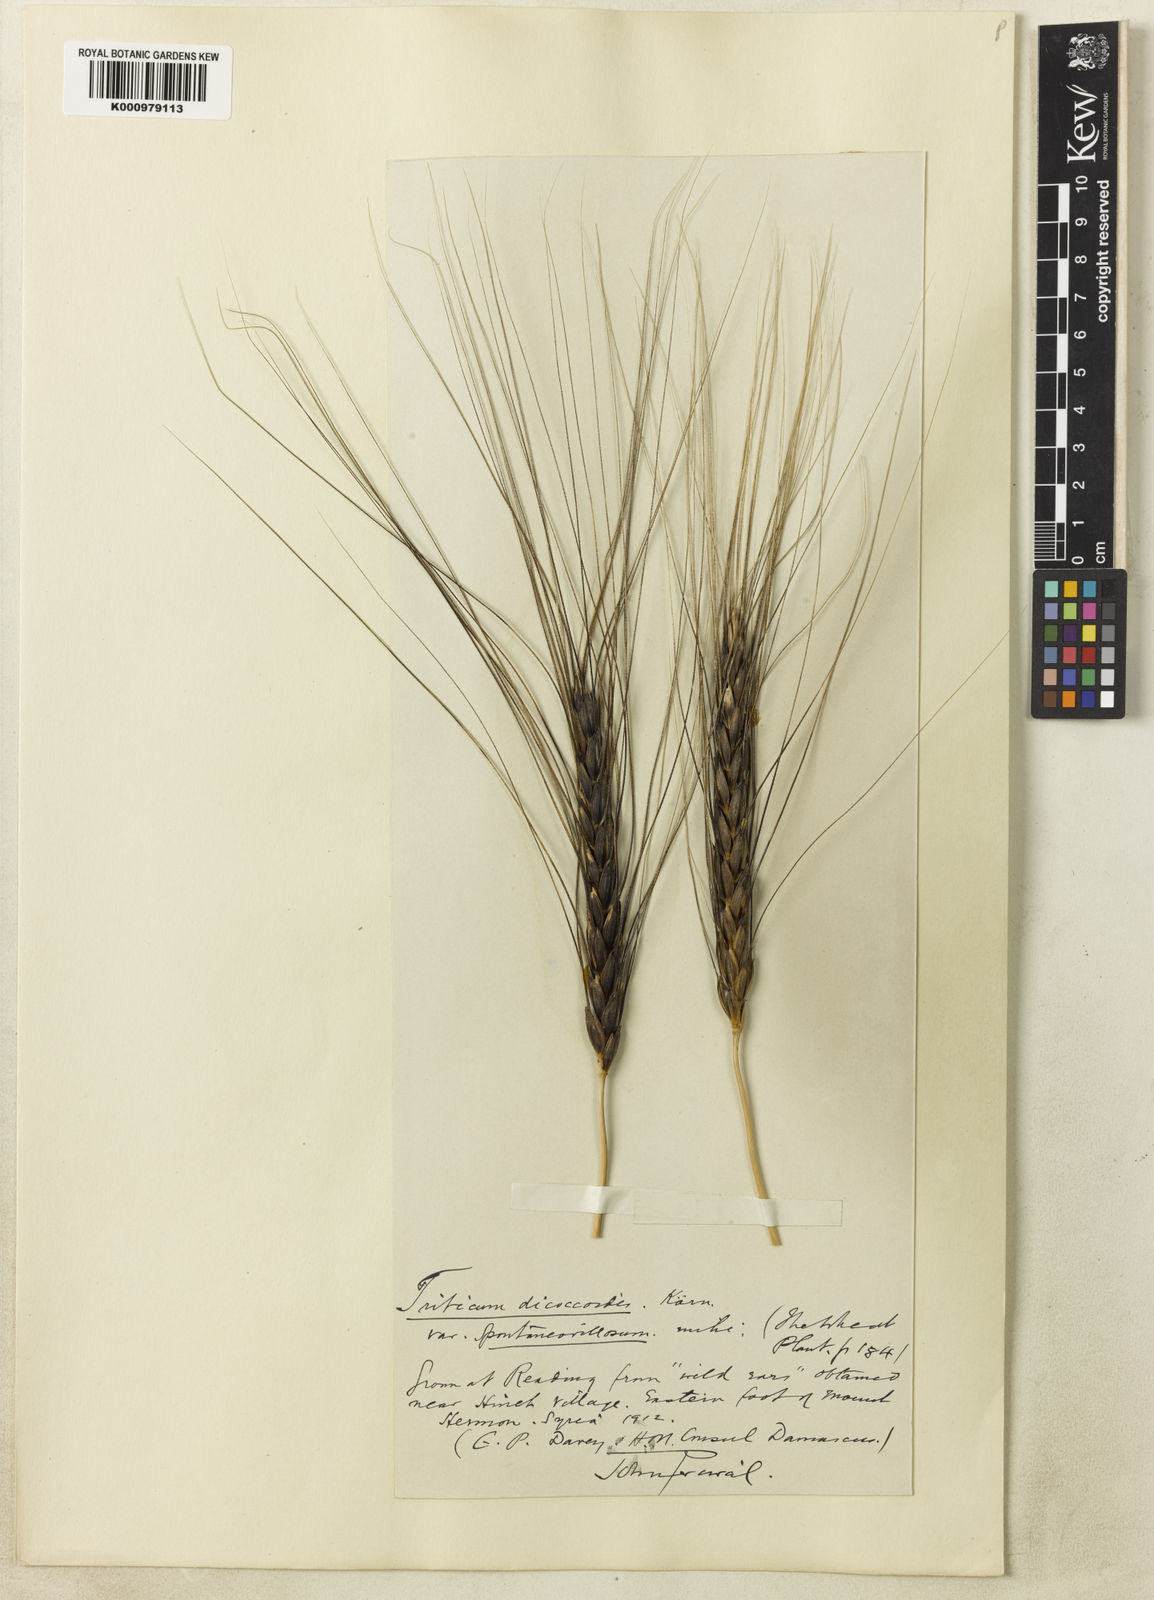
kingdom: Plantae
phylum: Tracheophyta
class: Liliopsida
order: Poales
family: Poaceae
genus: Triticum
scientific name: Triticum turgidum
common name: Rivet wheat
